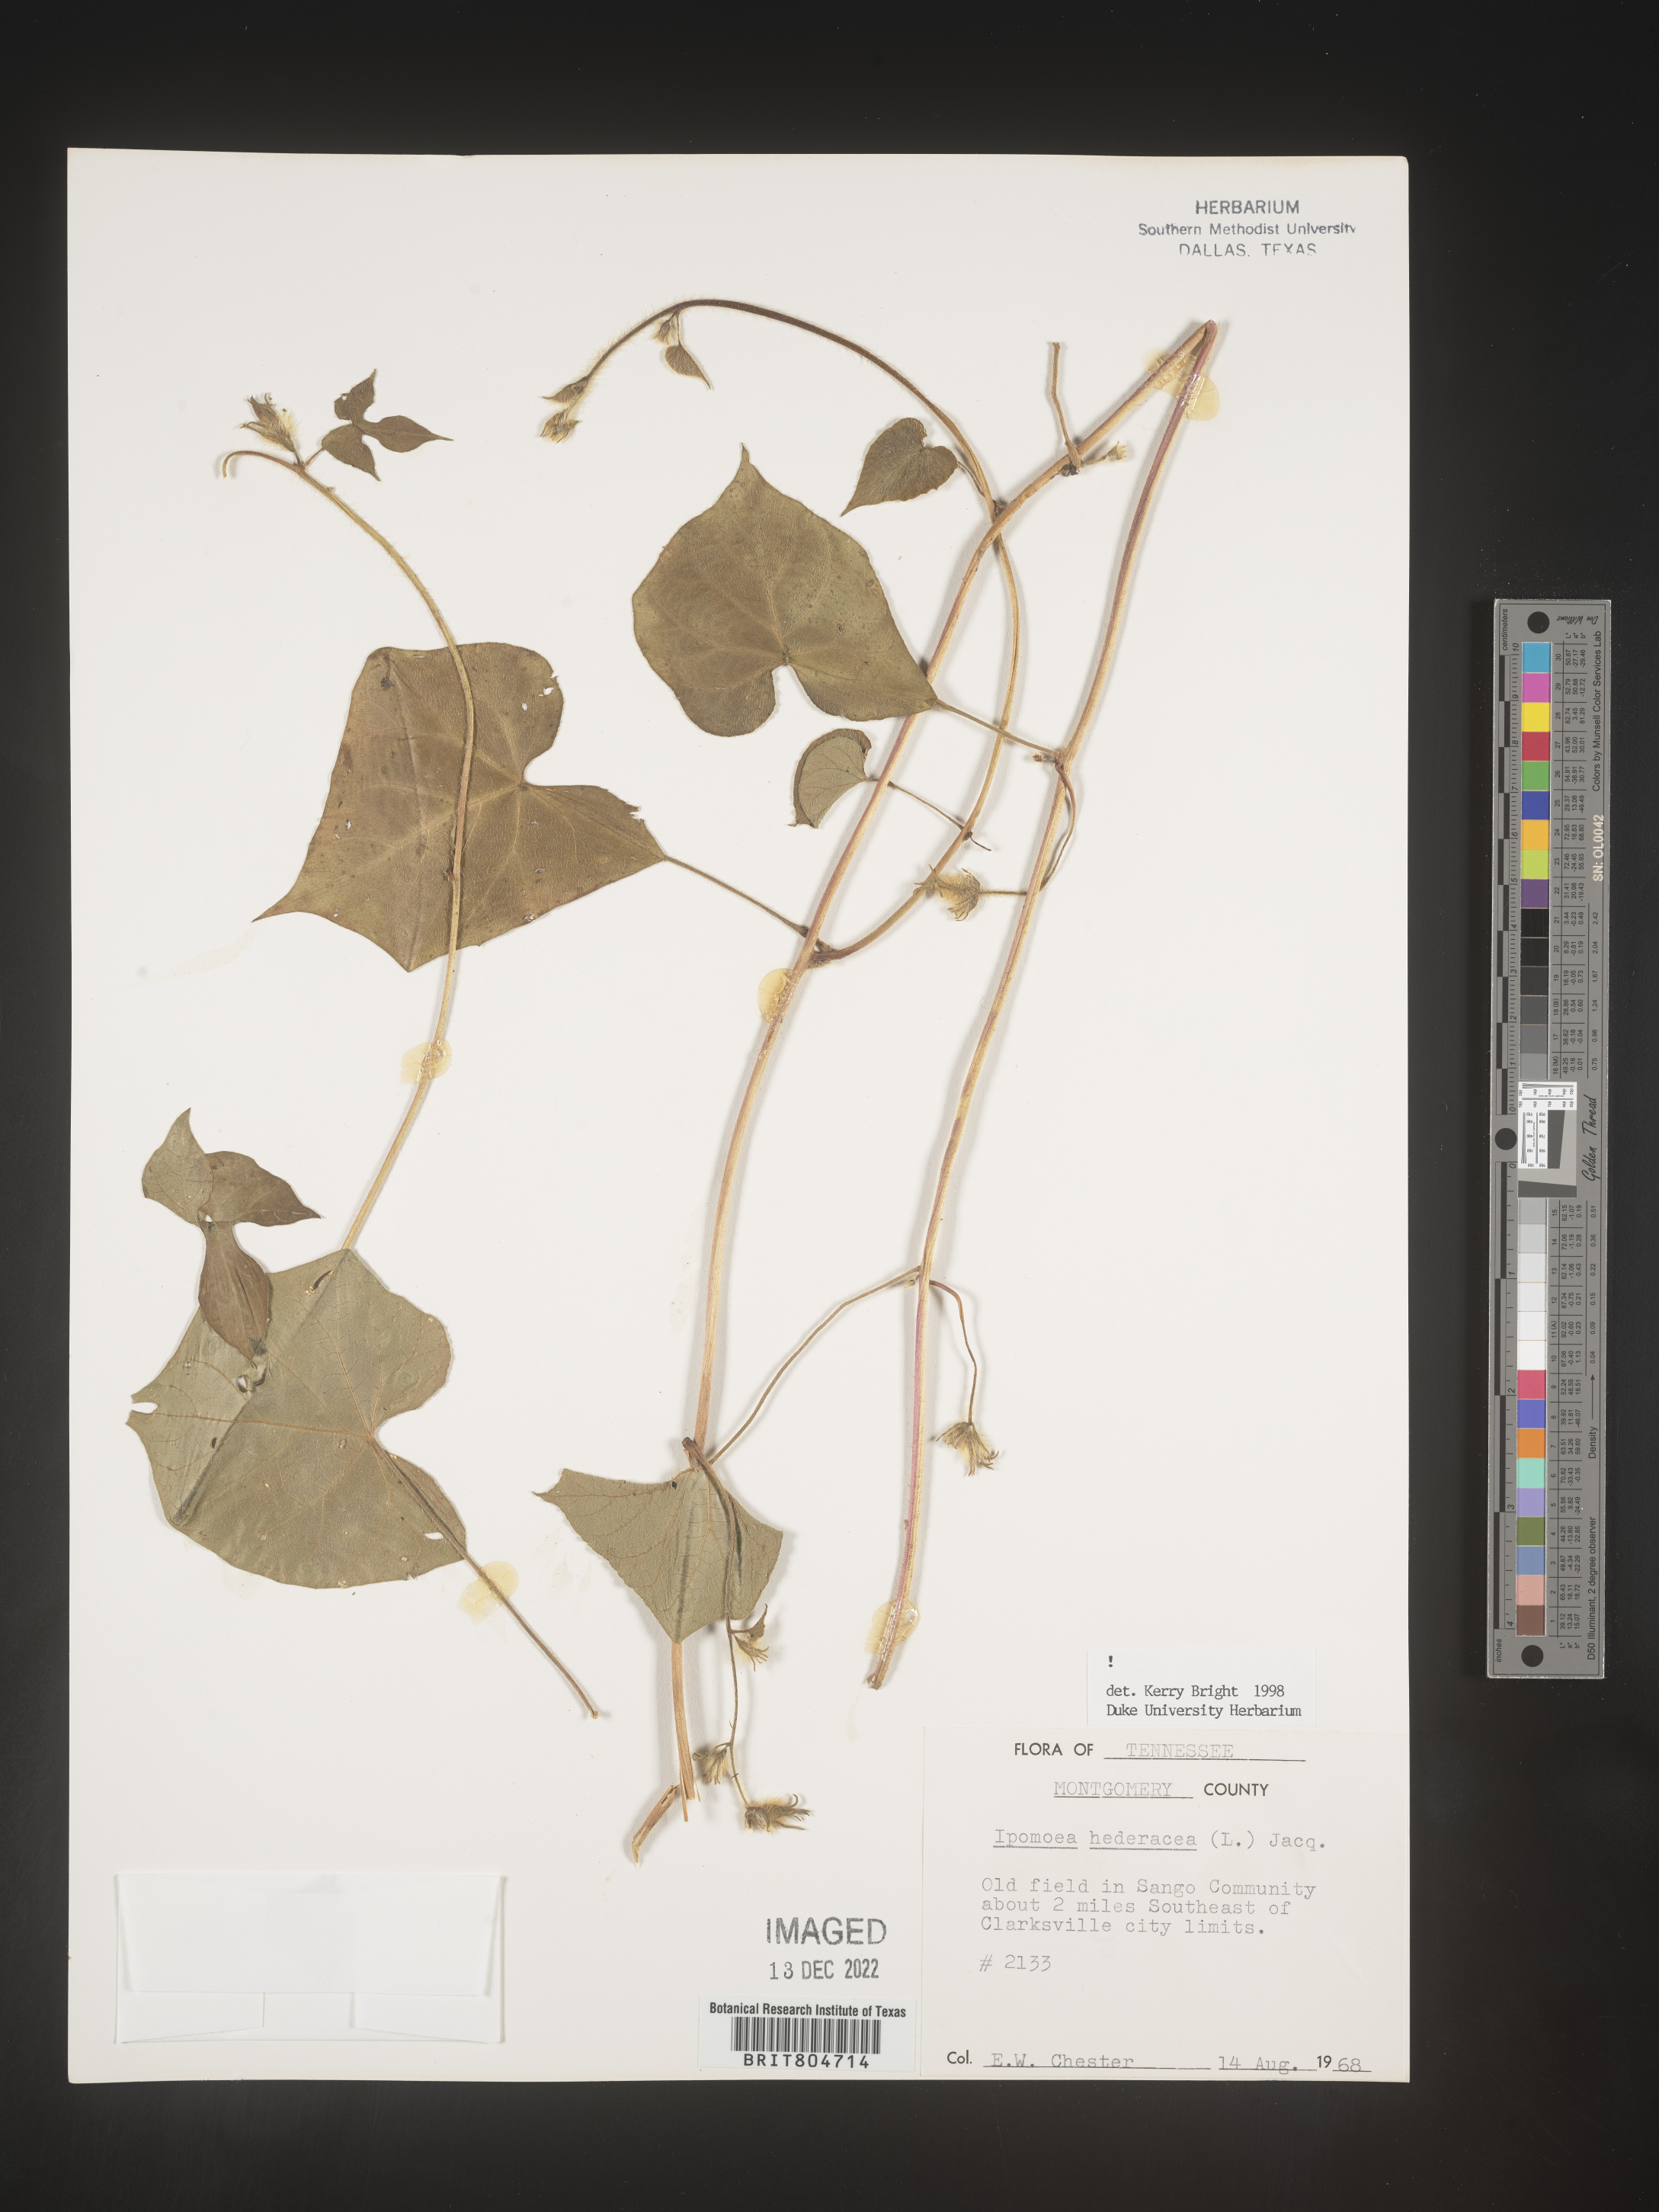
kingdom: Plantae
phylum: Tracheophyta
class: Magnoliopsida
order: Solanales
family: Convolvulaceae
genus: Ipomoea
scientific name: Ipomoea hederacea
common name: Ivy-leaved morning-glory
